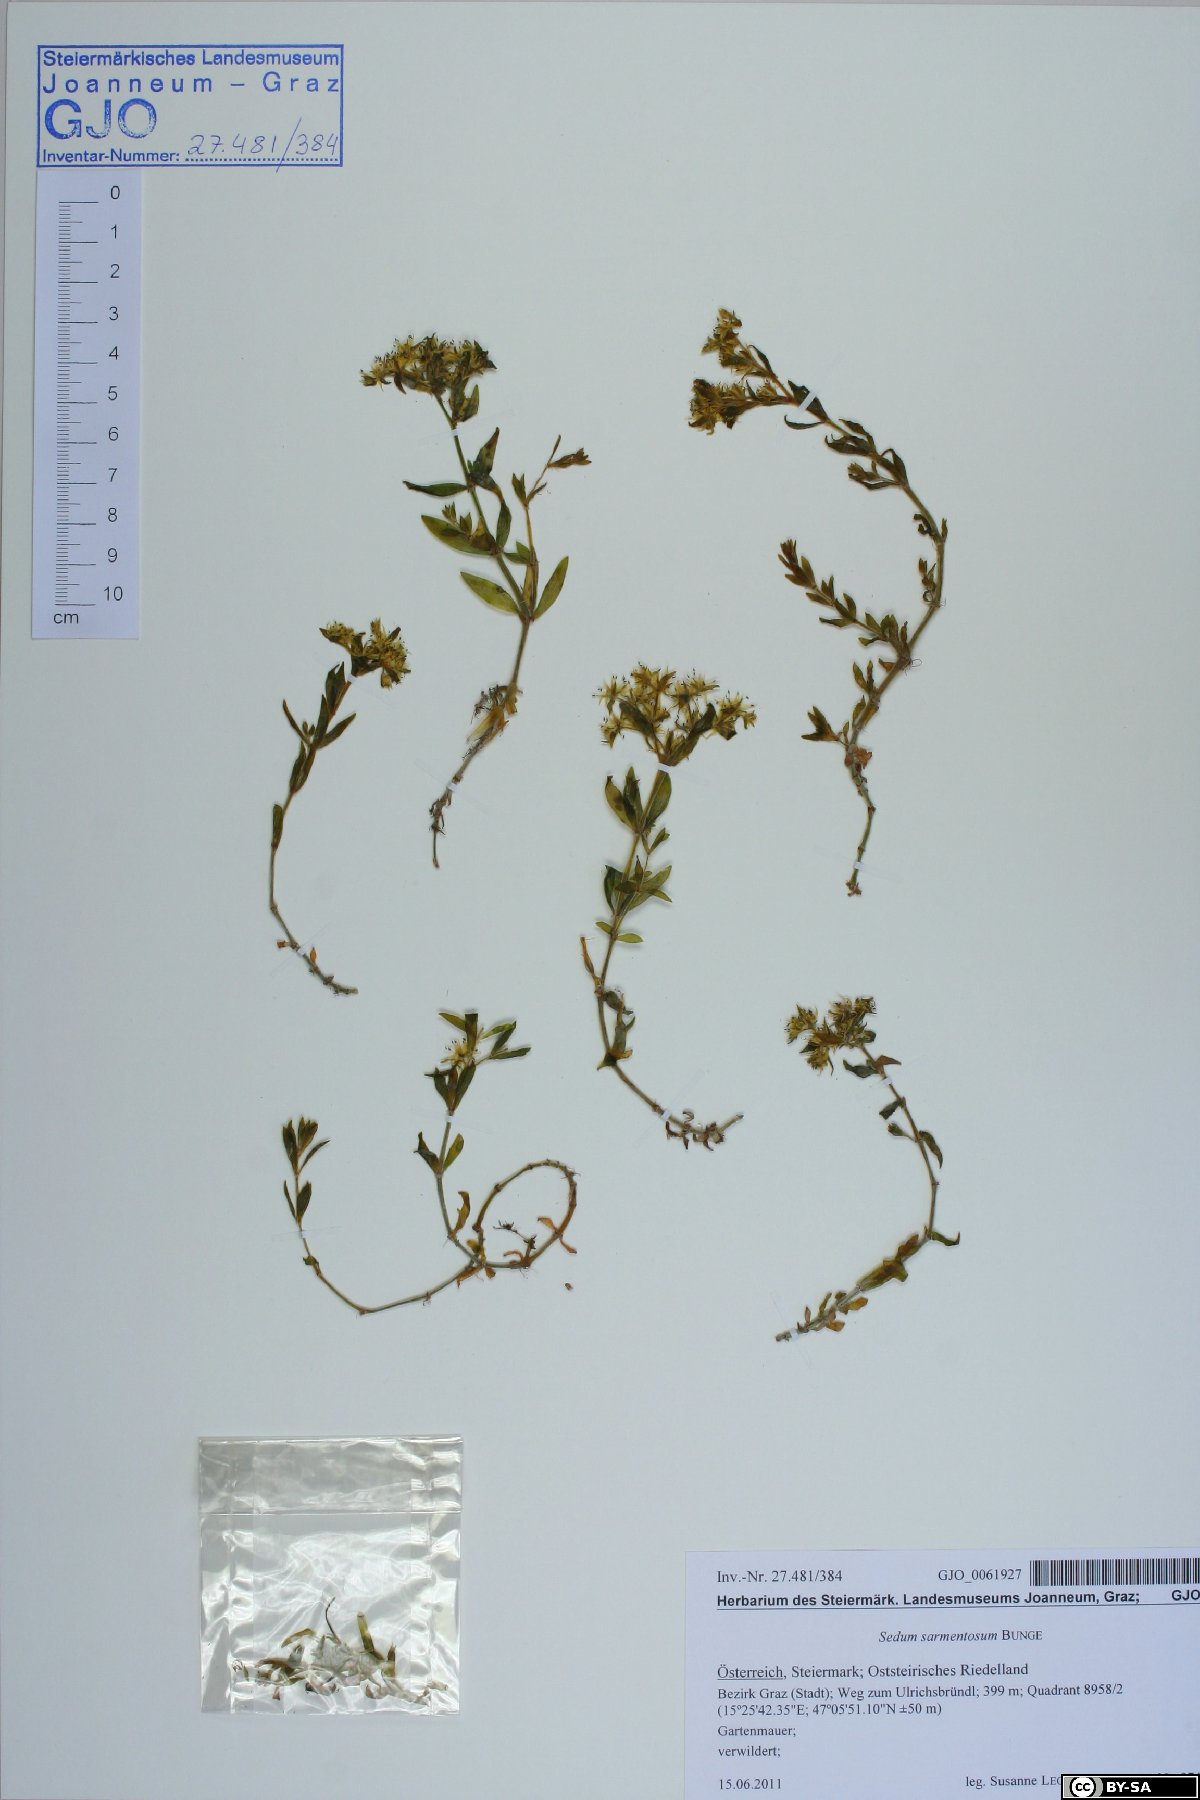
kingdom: Plantae
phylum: Tracheophyta
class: Magnoliopsida
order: Saxifragales
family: Crassulaceae
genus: Sedum
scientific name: Sedum sarmentosum
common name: Stringy stonecrop
